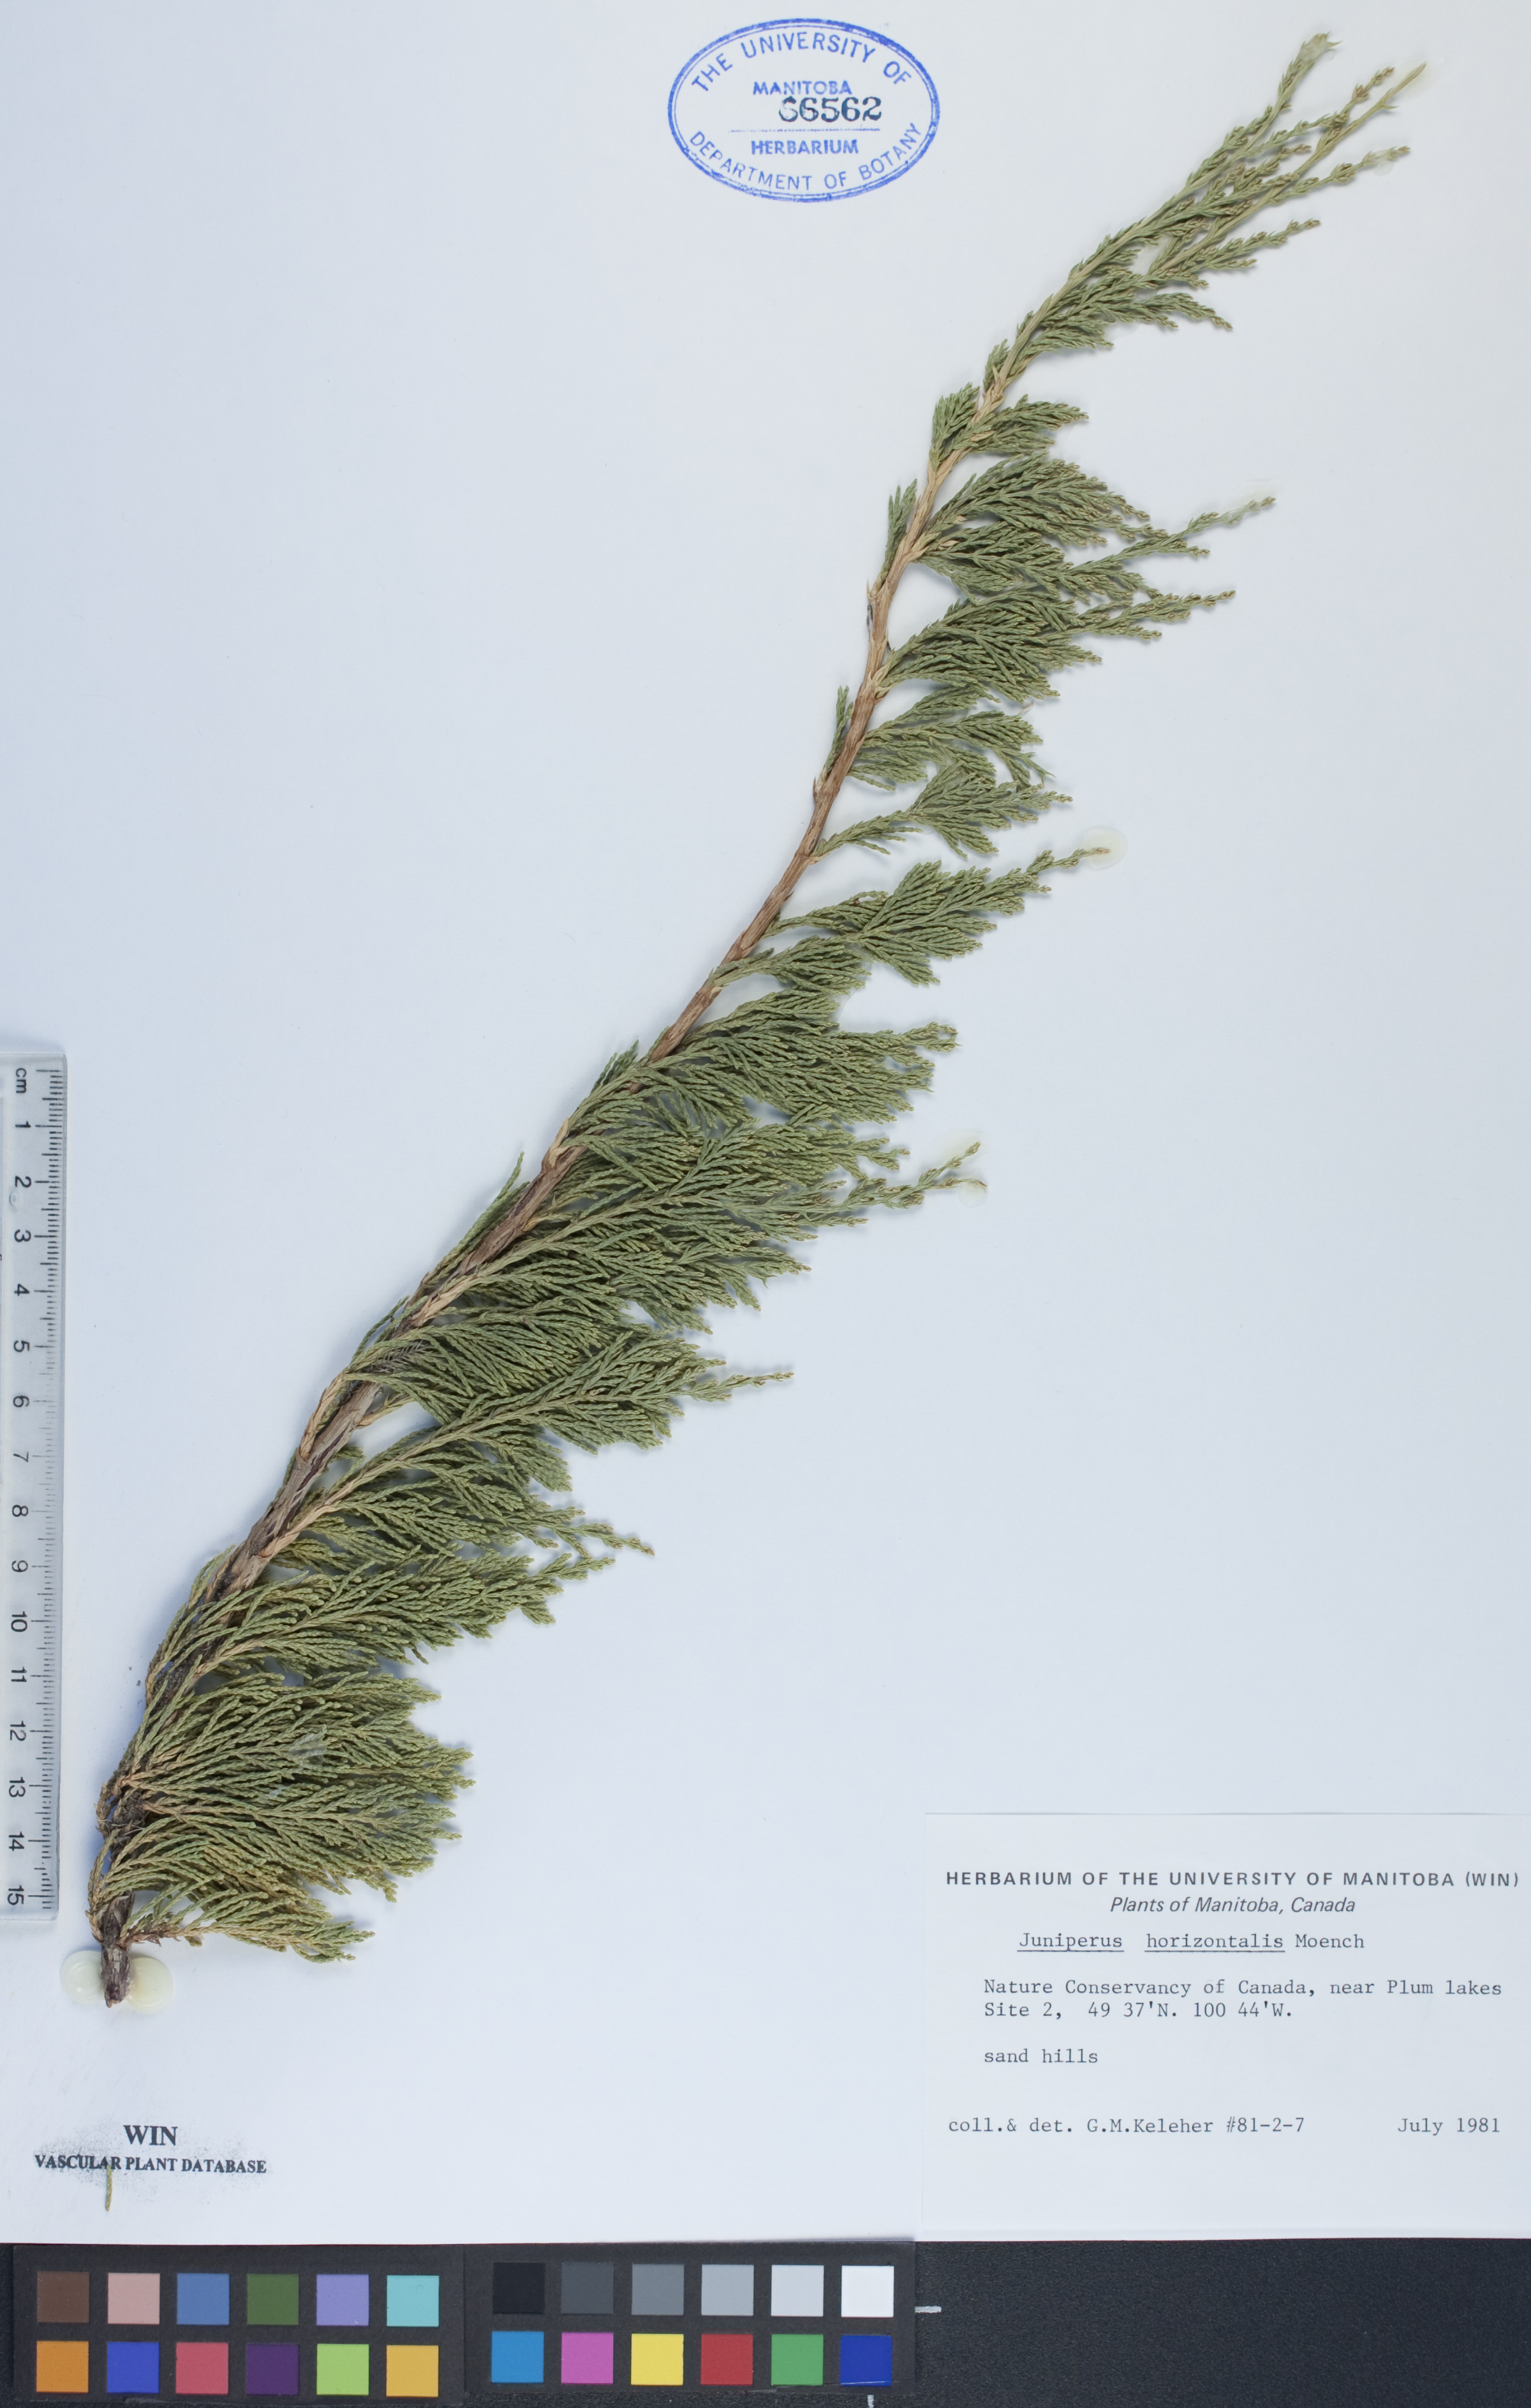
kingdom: Plantae
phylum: Tracheophyta
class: Pinopsida
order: Pinales
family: Cupressaceae
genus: Juniperus
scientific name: Juniperus horizontalis
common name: Creeping juniper
